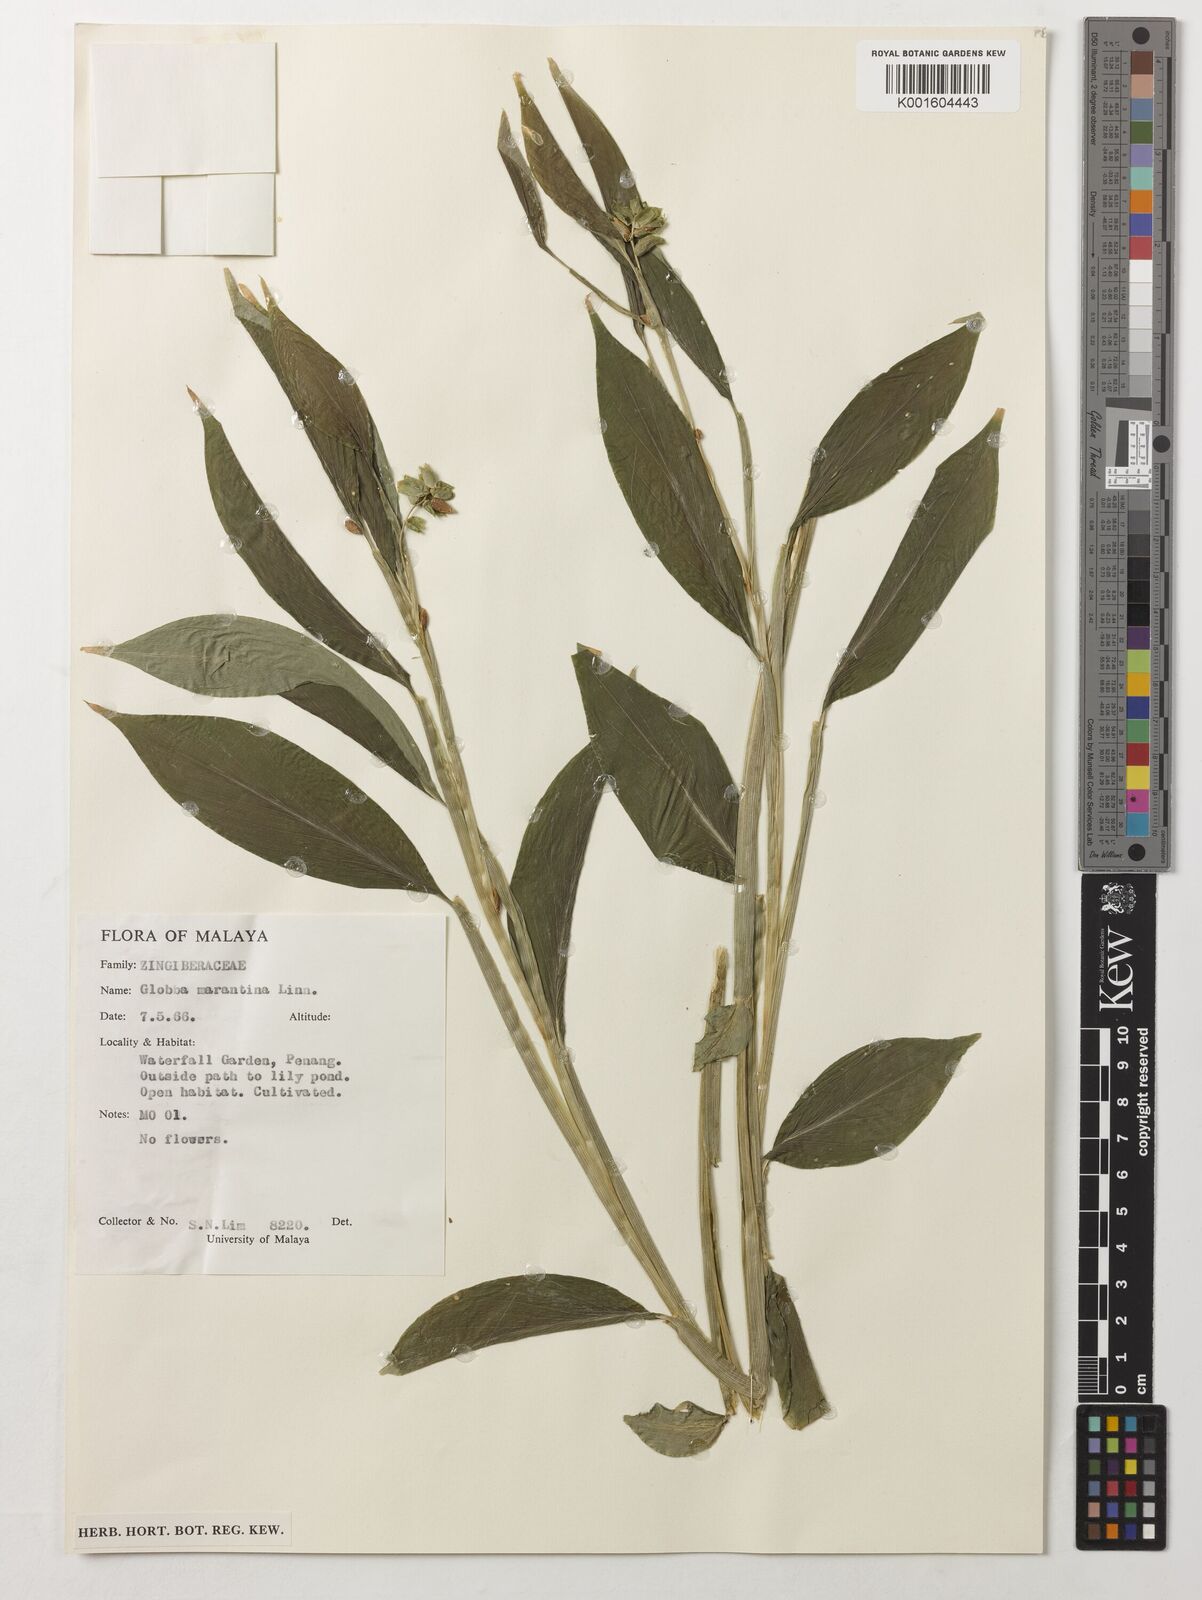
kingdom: Plantae
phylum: Tracheophyta
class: Liliopsida
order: Zingiberales
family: Zingiberaceae
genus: Globba
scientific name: Globba marantina
